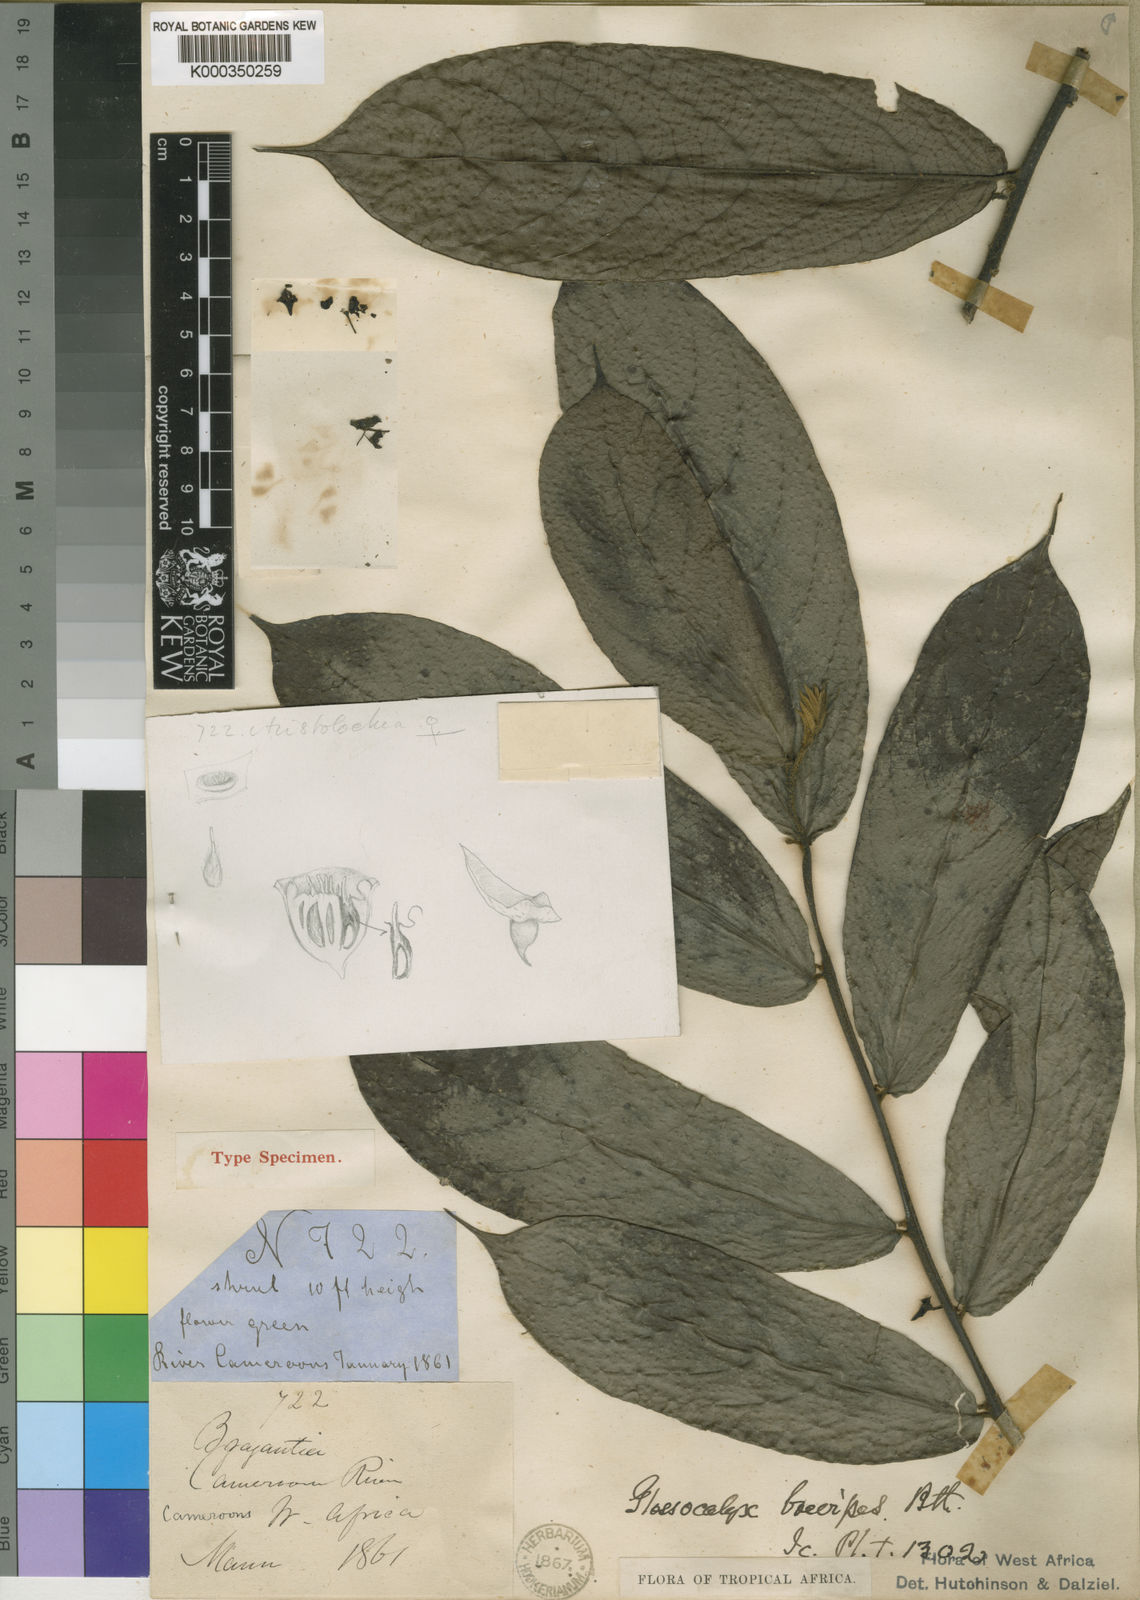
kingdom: Plantae
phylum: Tracheophyta
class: Magnoliopsida
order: Laurales
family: Siparunaceae
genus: Glossocalyx
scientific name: Glossocalyx brevipes
